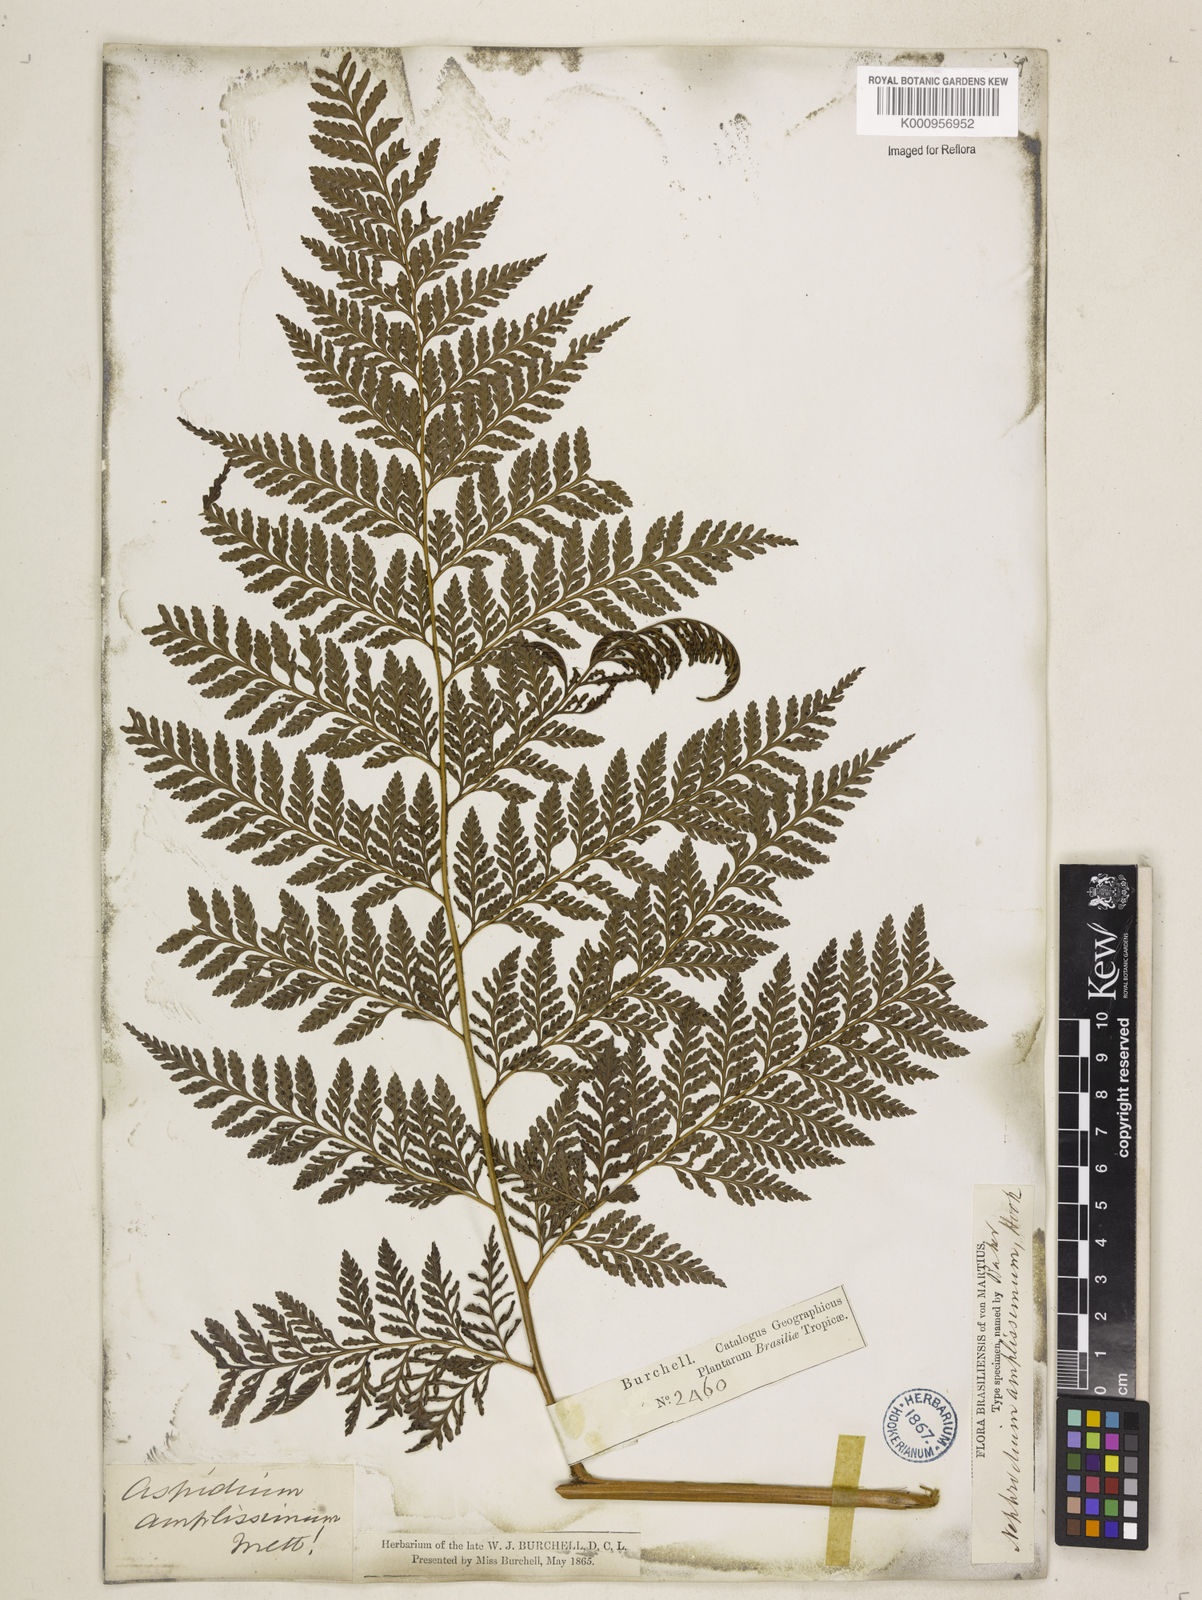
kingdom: Plantae
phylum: Tracheophyta
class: Polypodiopsida
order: Polypodiales
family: Dryopteridaceae
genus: Lastreopsis
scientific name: Lastreopsis amplissima
